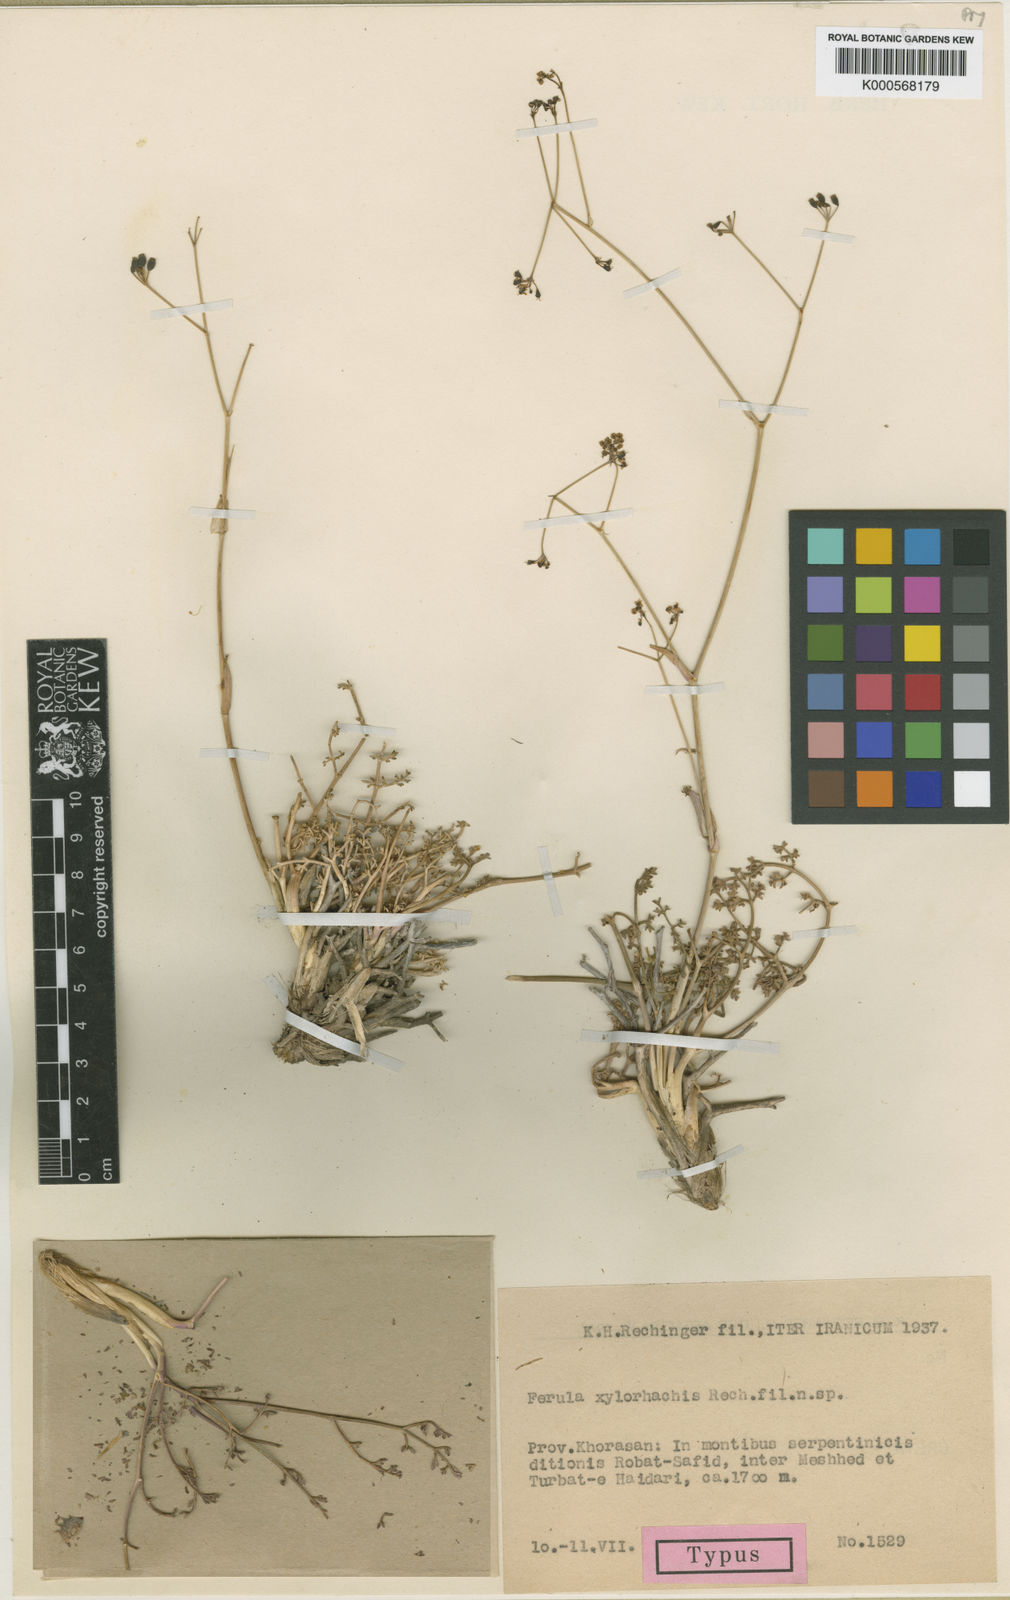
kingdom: Plantae
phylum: Tracheophyta
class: Magnoliopsida
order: Apiales
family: Apiaceae
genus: Ferula
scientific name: Ferula xylorhachis
